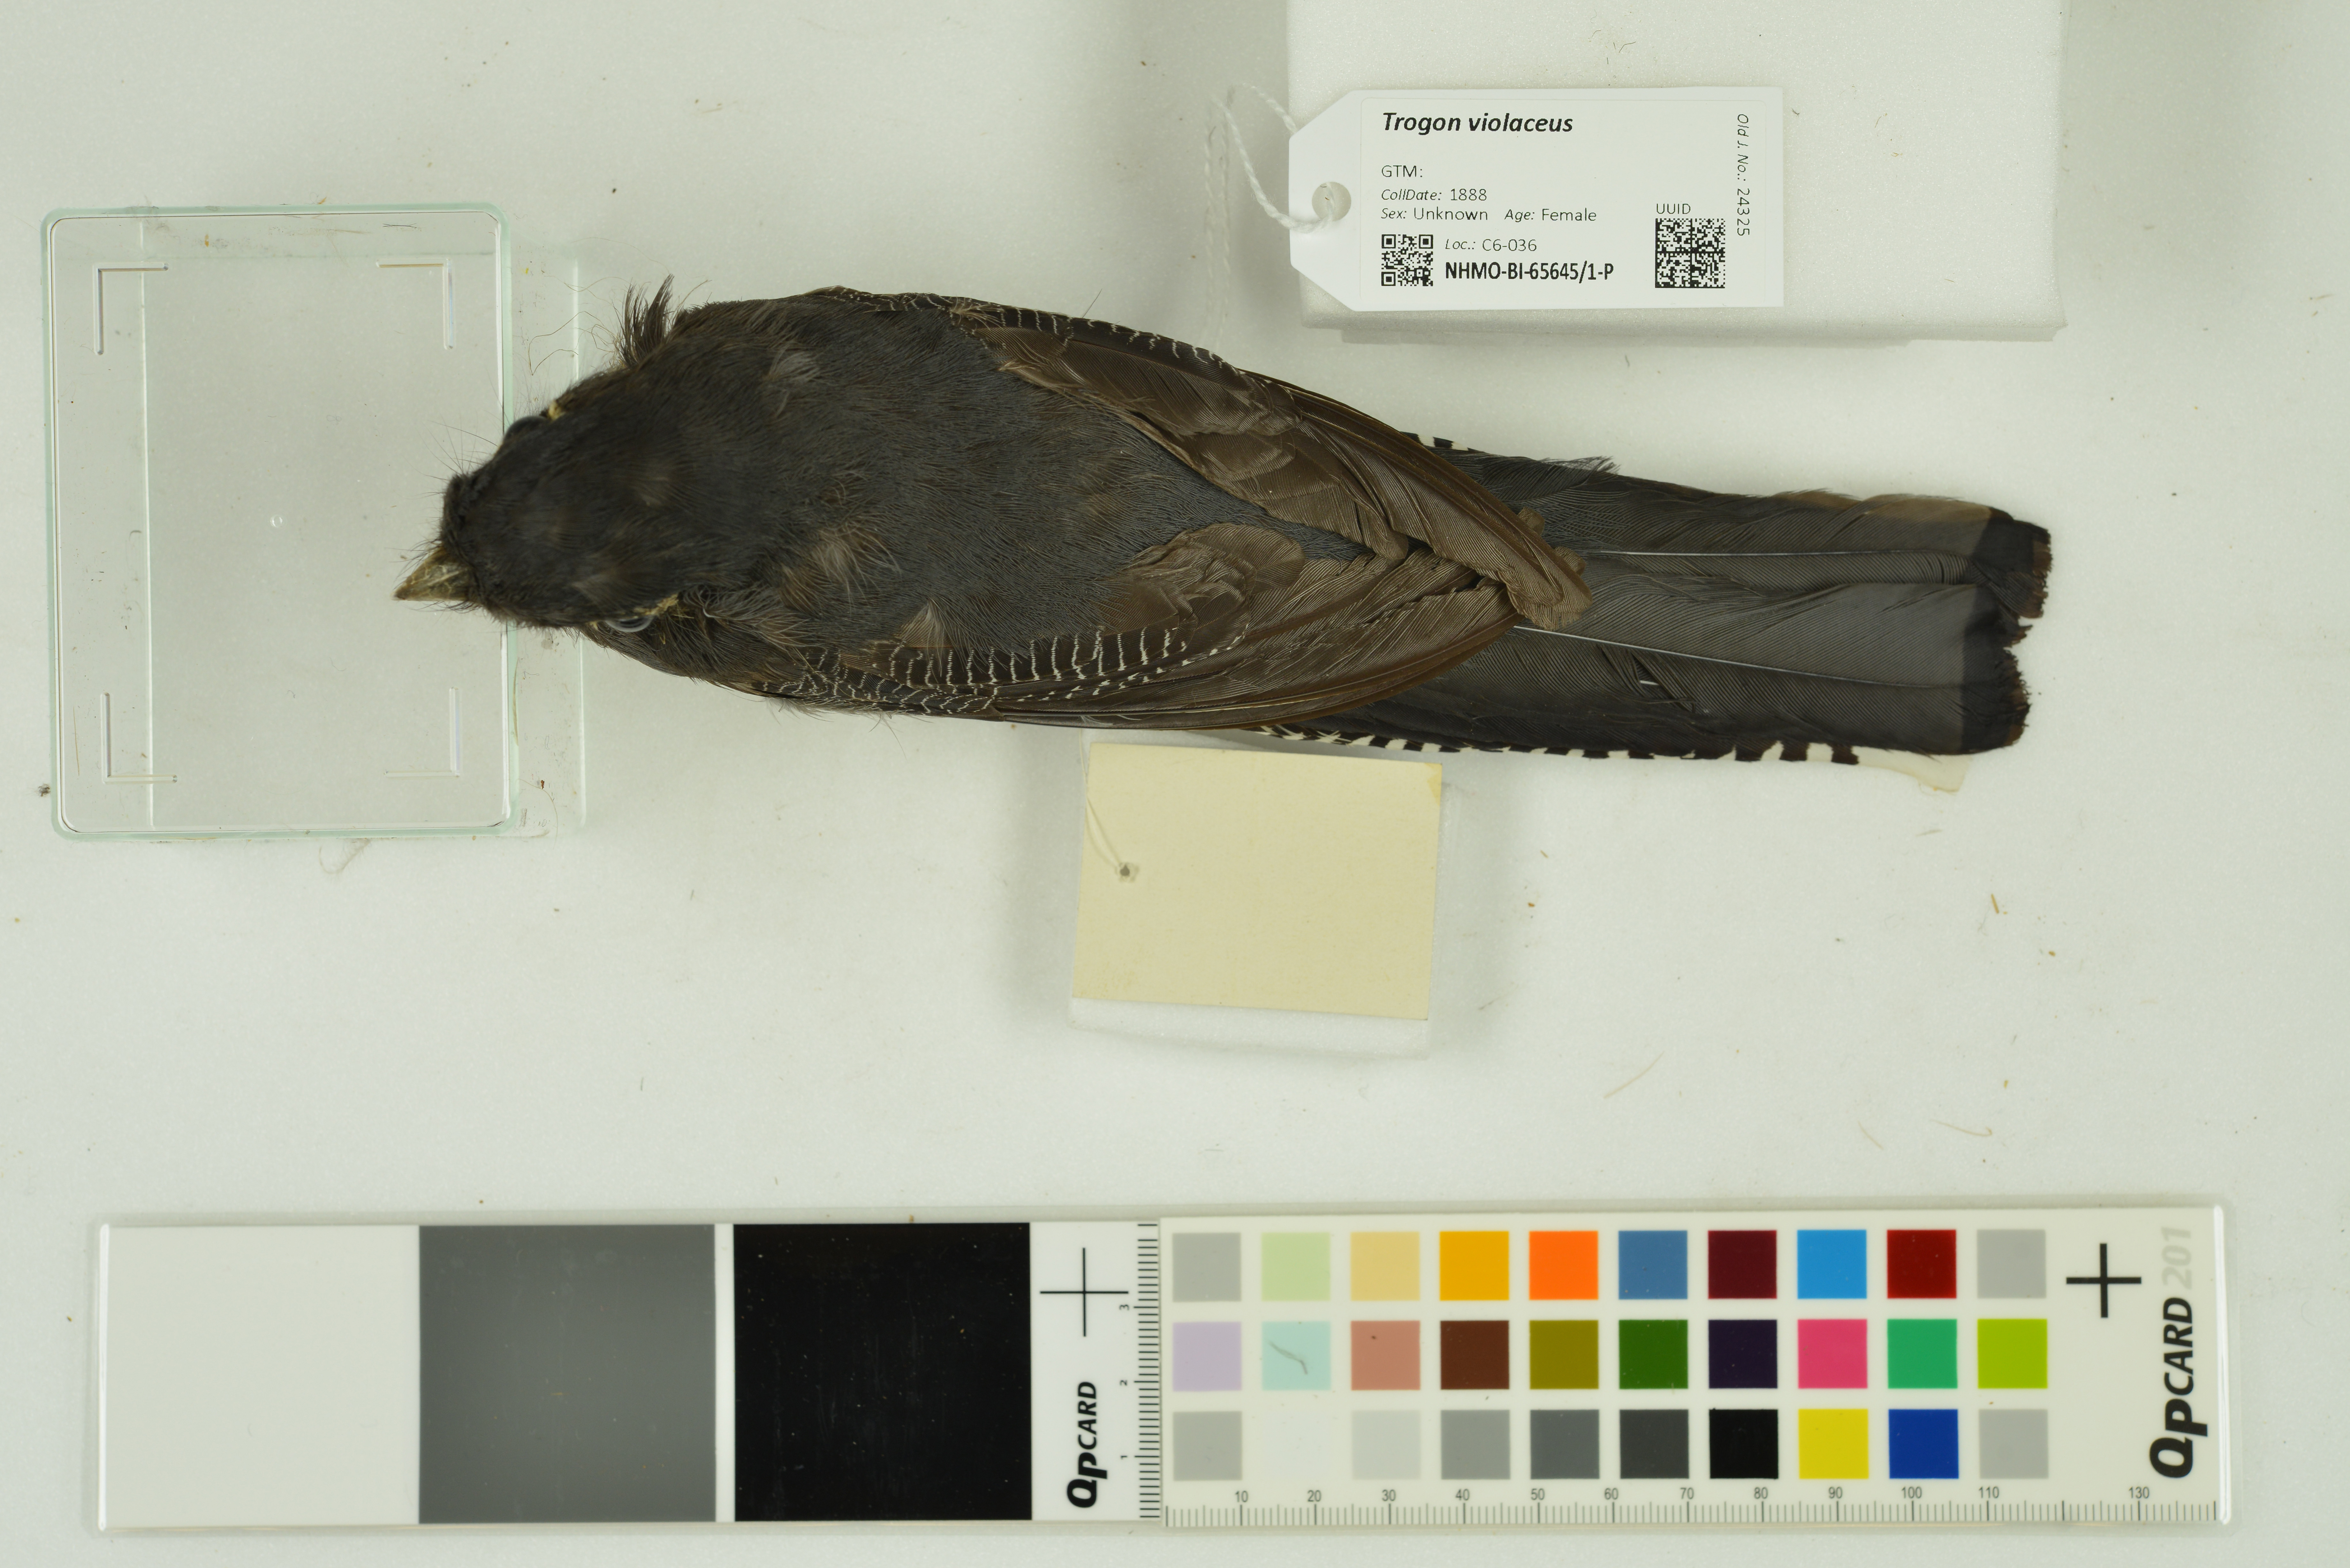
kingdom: Animalia
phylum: Chordata
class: Aves
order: Trogoniformes
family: Trogonidae
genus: Trogon
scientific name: Trogon violaceus
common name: Guianan trogon
